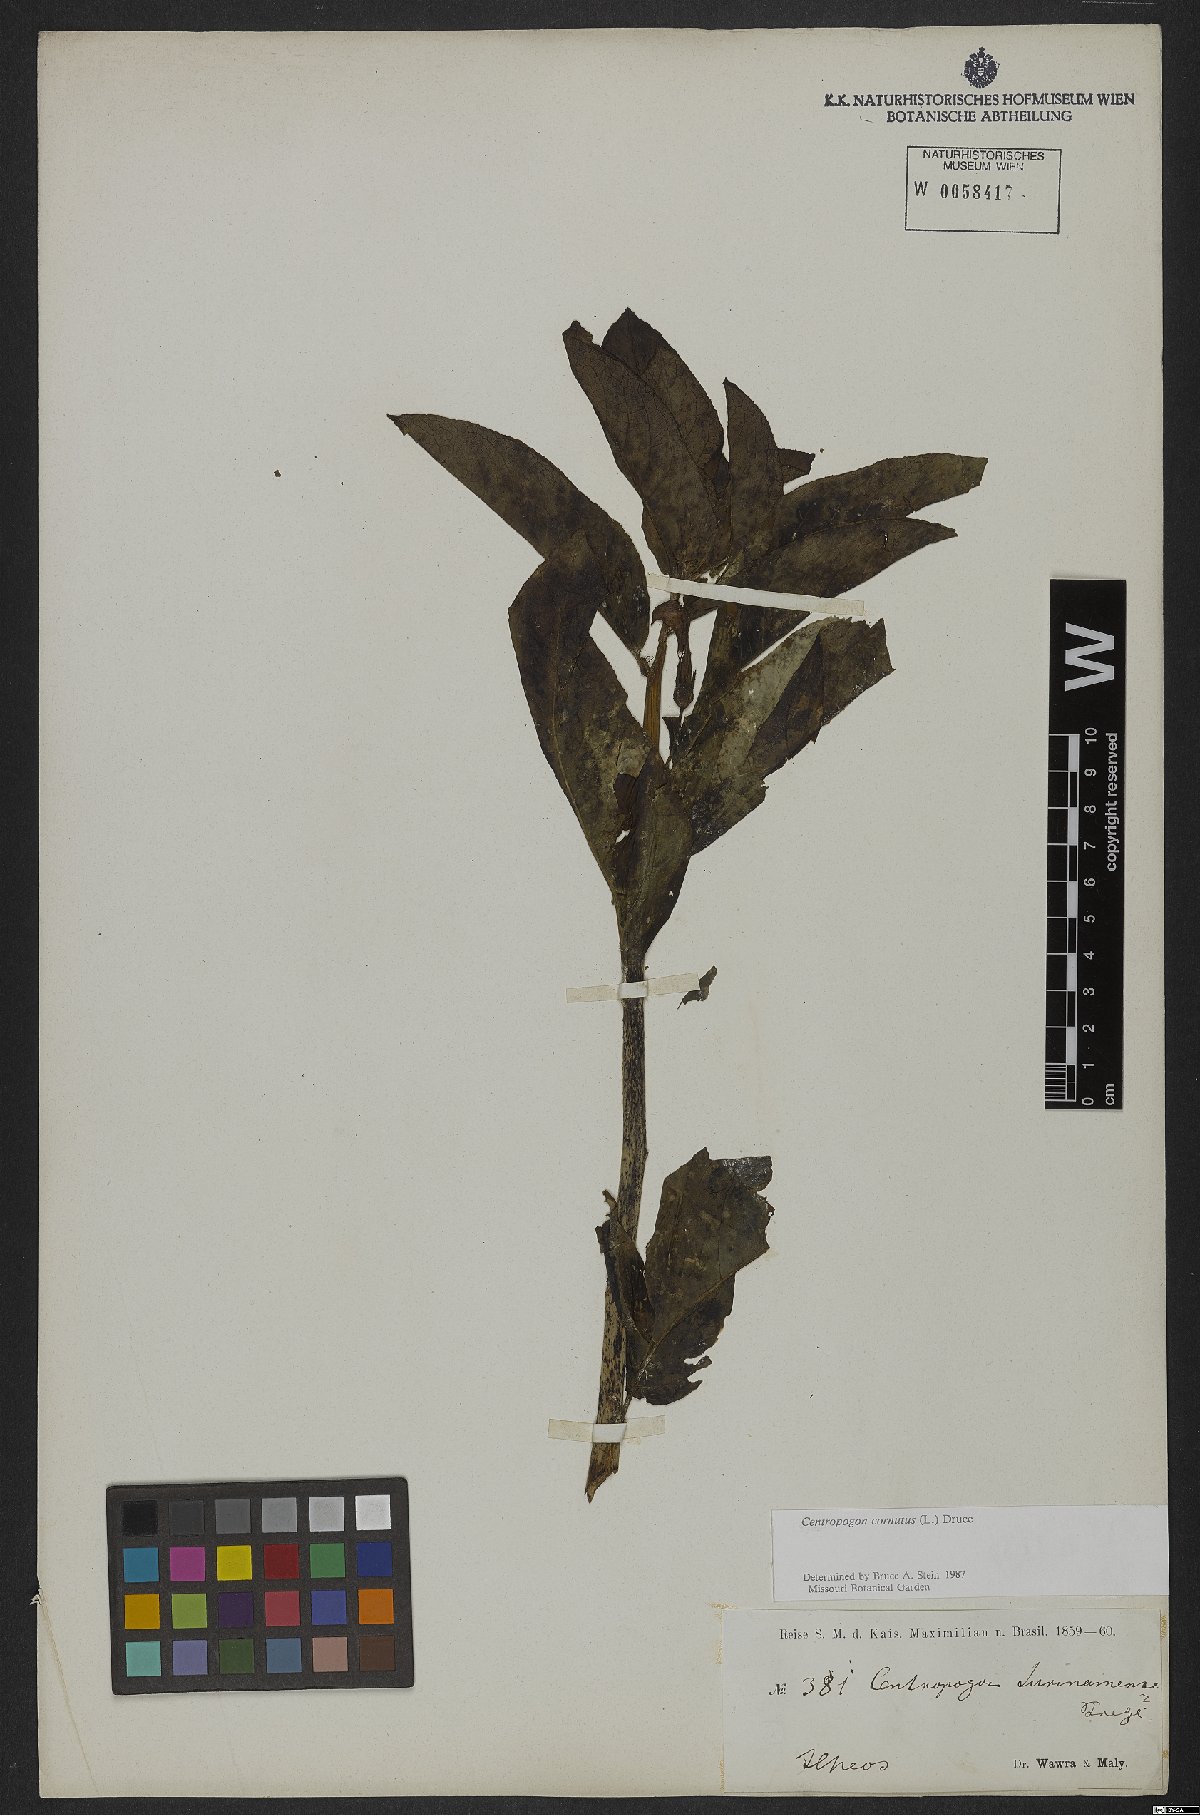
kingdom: Plantae
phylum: Tracheophyta
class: Magnoliopsida
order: Asterales
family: Campanulaceae
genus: Centropogon
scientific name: Centropogon cornutus
